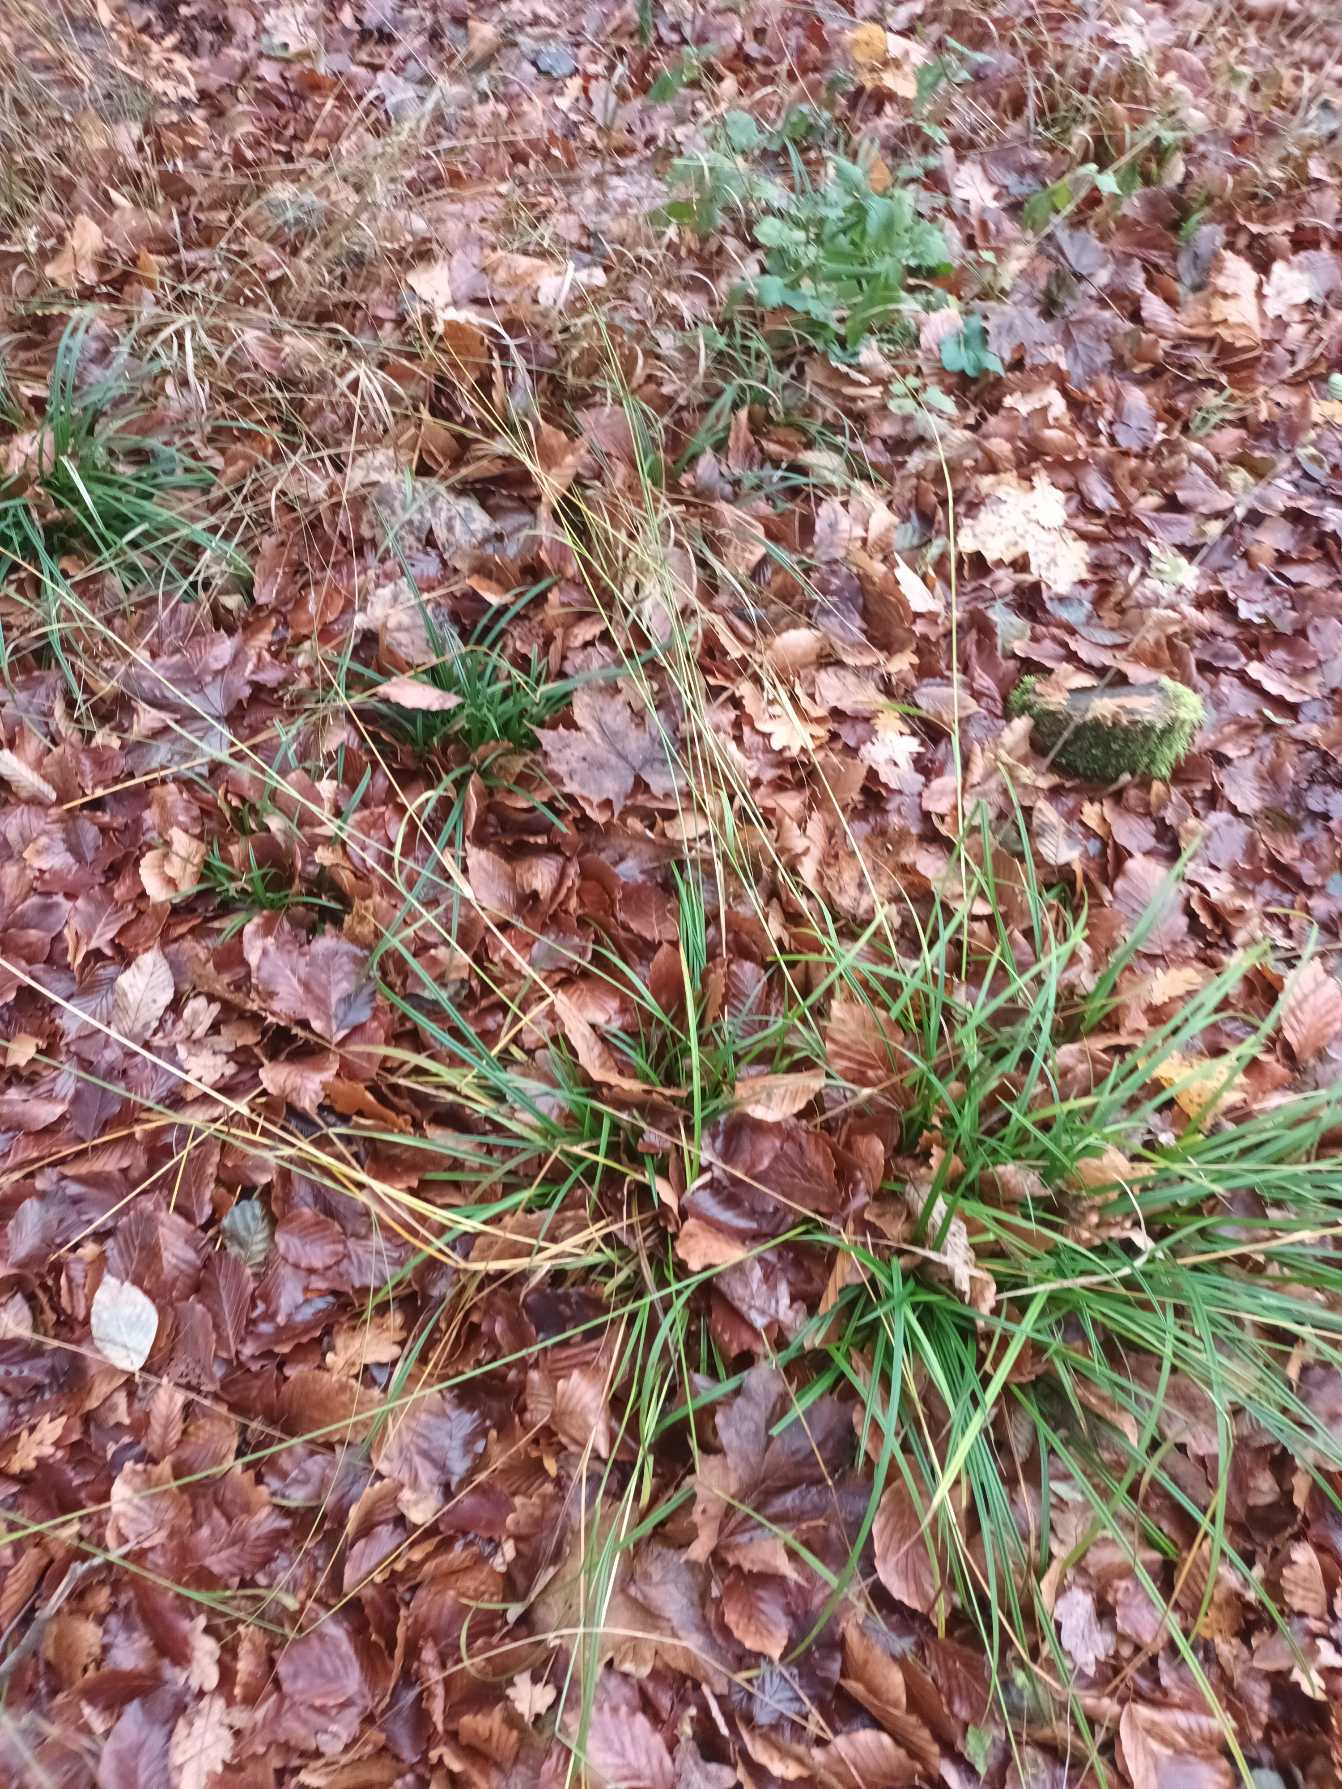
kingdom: Plantae
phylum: Tracheophyta
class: Liliopsida
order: Poales
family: Cyperaceae
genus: Carex
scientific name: Carex sylvatica
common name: Skov-star
